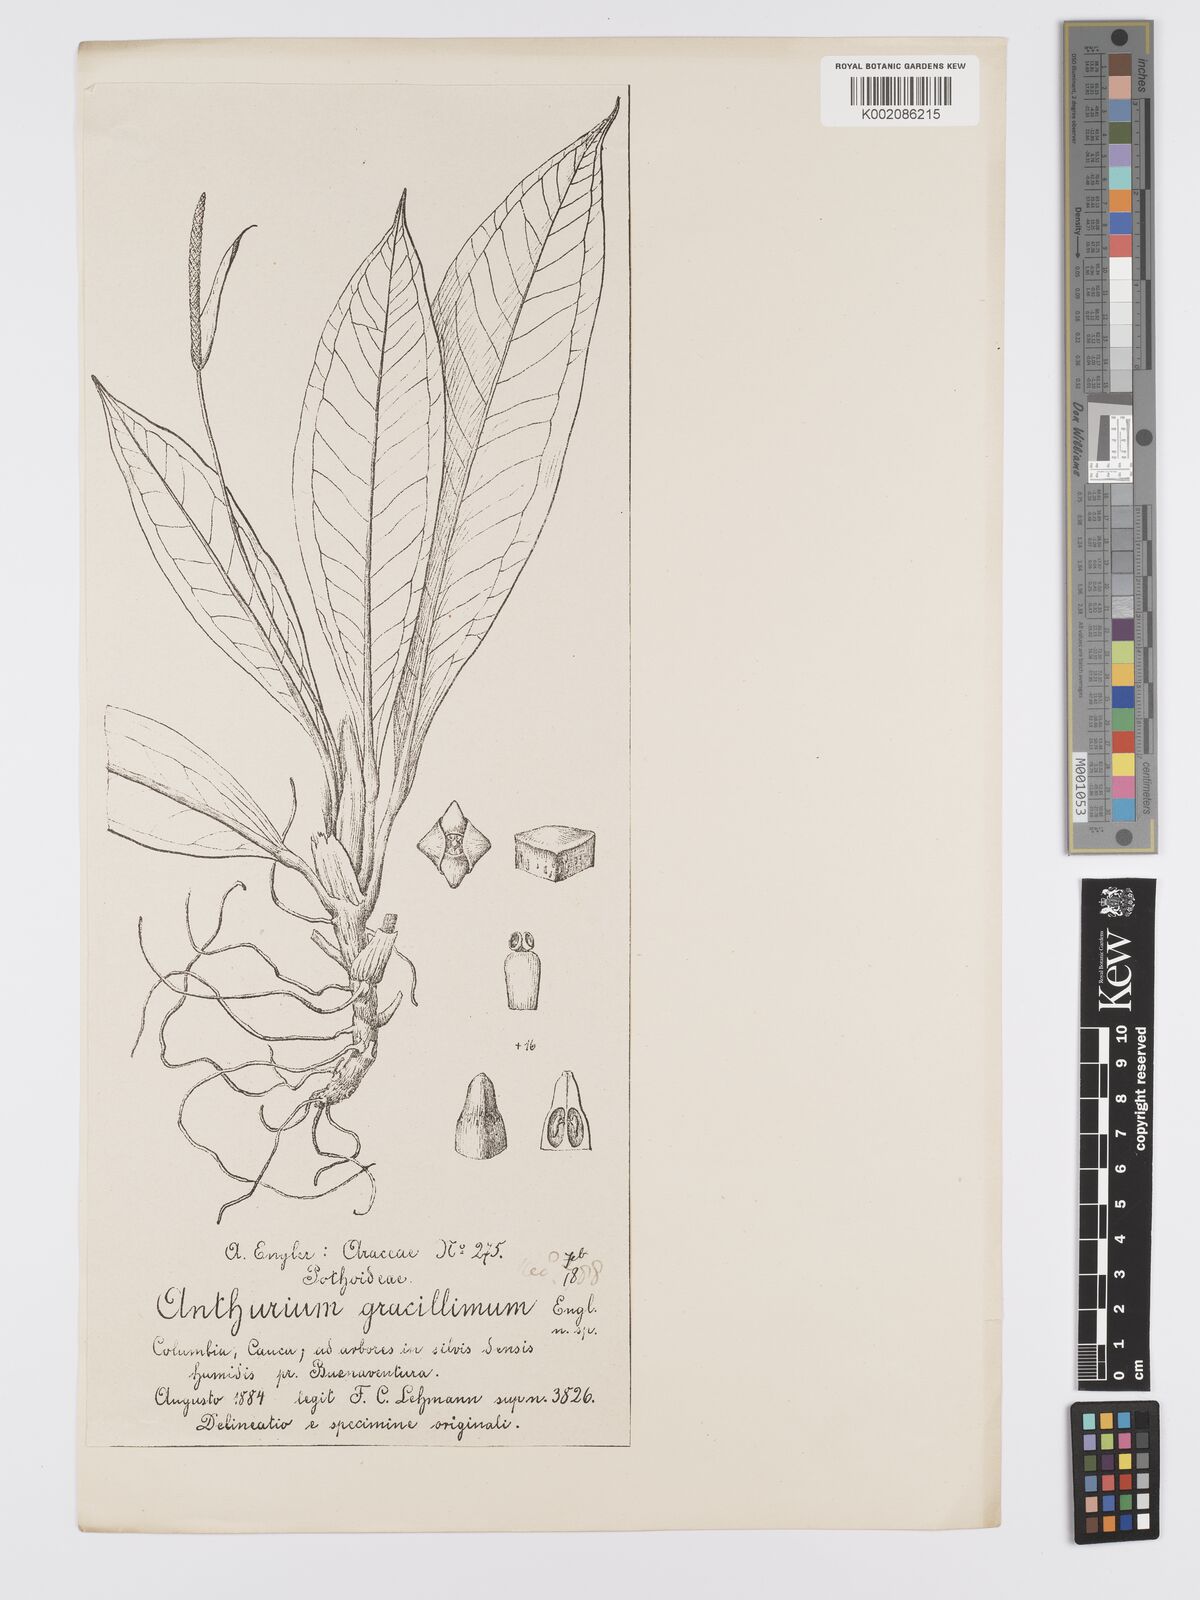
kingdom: Plantae
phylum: Tracheophyta
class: Liliopsida
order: Alismatales
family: Araceae
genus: Anthurium
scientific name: Anthurium guayaquilense
